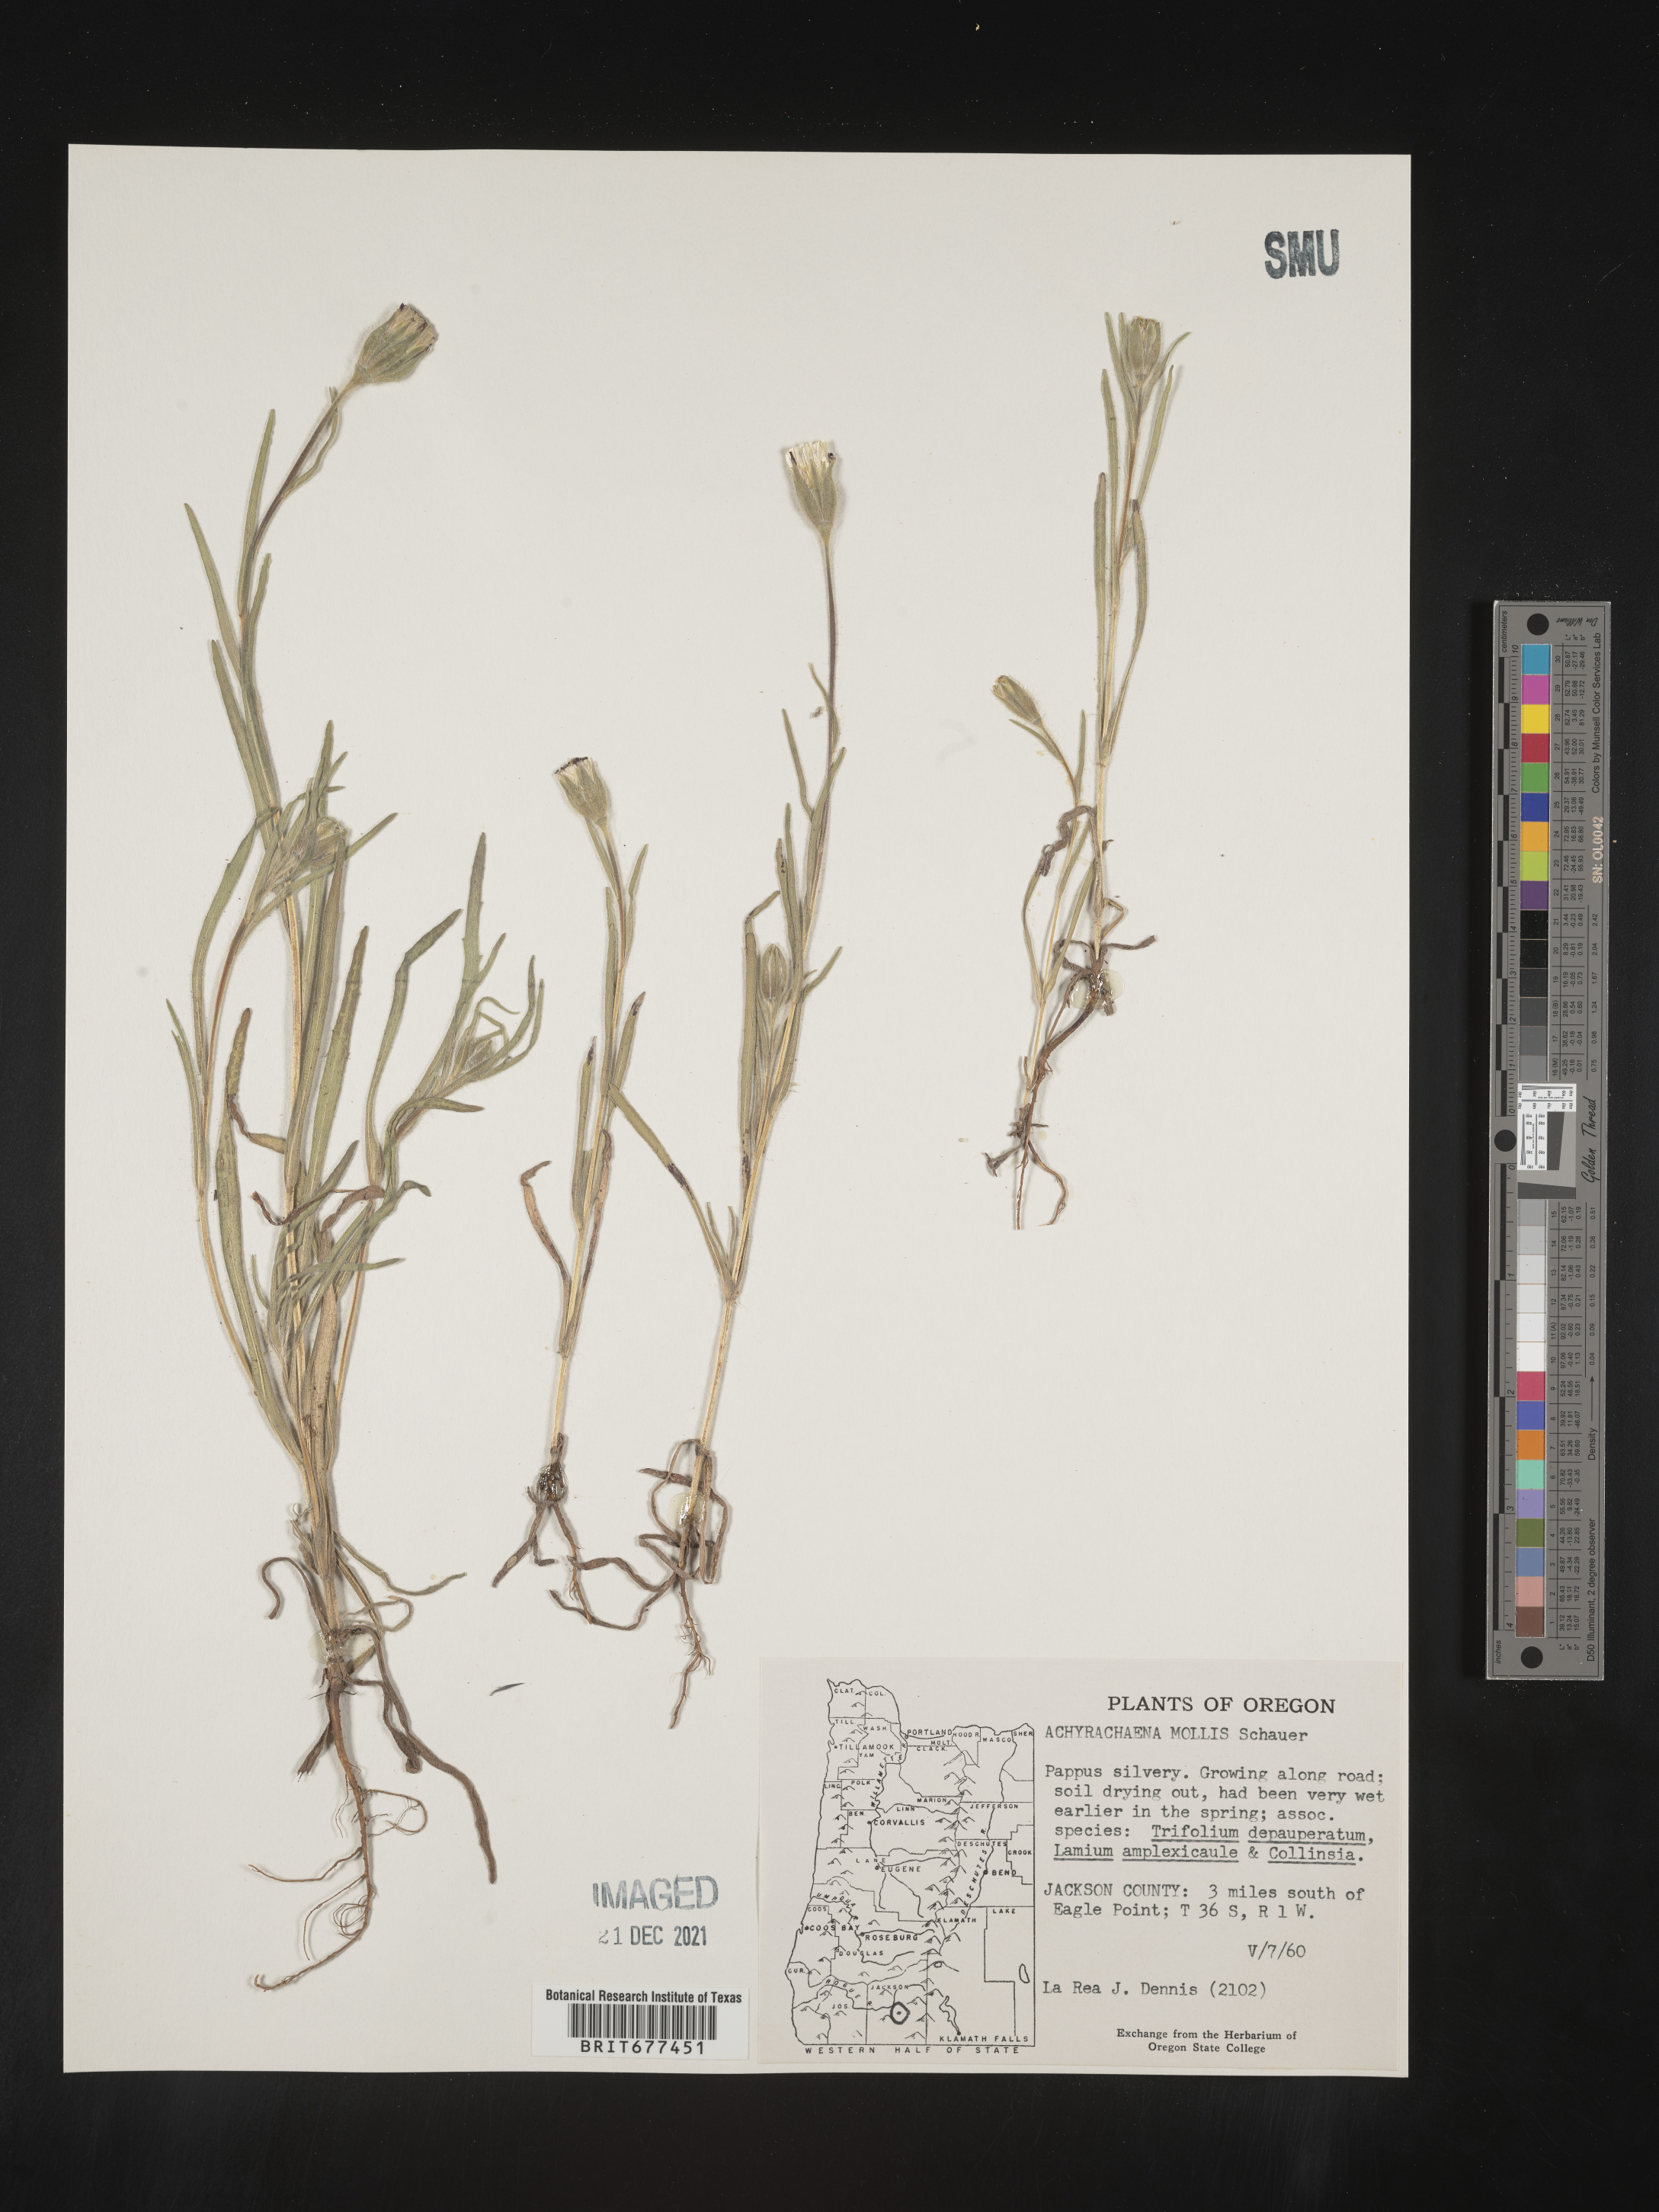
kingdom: Plantae
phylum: Tracheophyta
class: Magnoliopsida
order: Asterales
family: Asteraceae
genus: Achyrachaena
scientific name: Achyrachaena mollis
